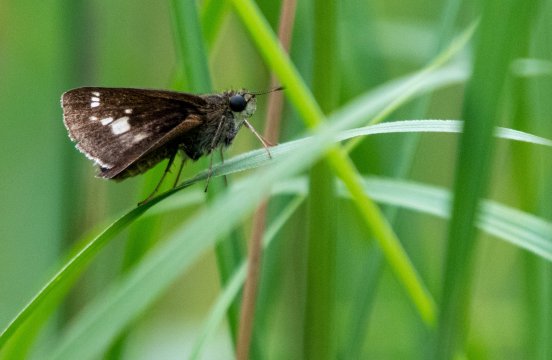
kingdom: Animalia
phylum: Arthropoda
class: Insecta
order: Lepidoptera
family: Hesperiidae
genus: Vernia
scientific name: Vernia verna
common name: Little Glassywing
